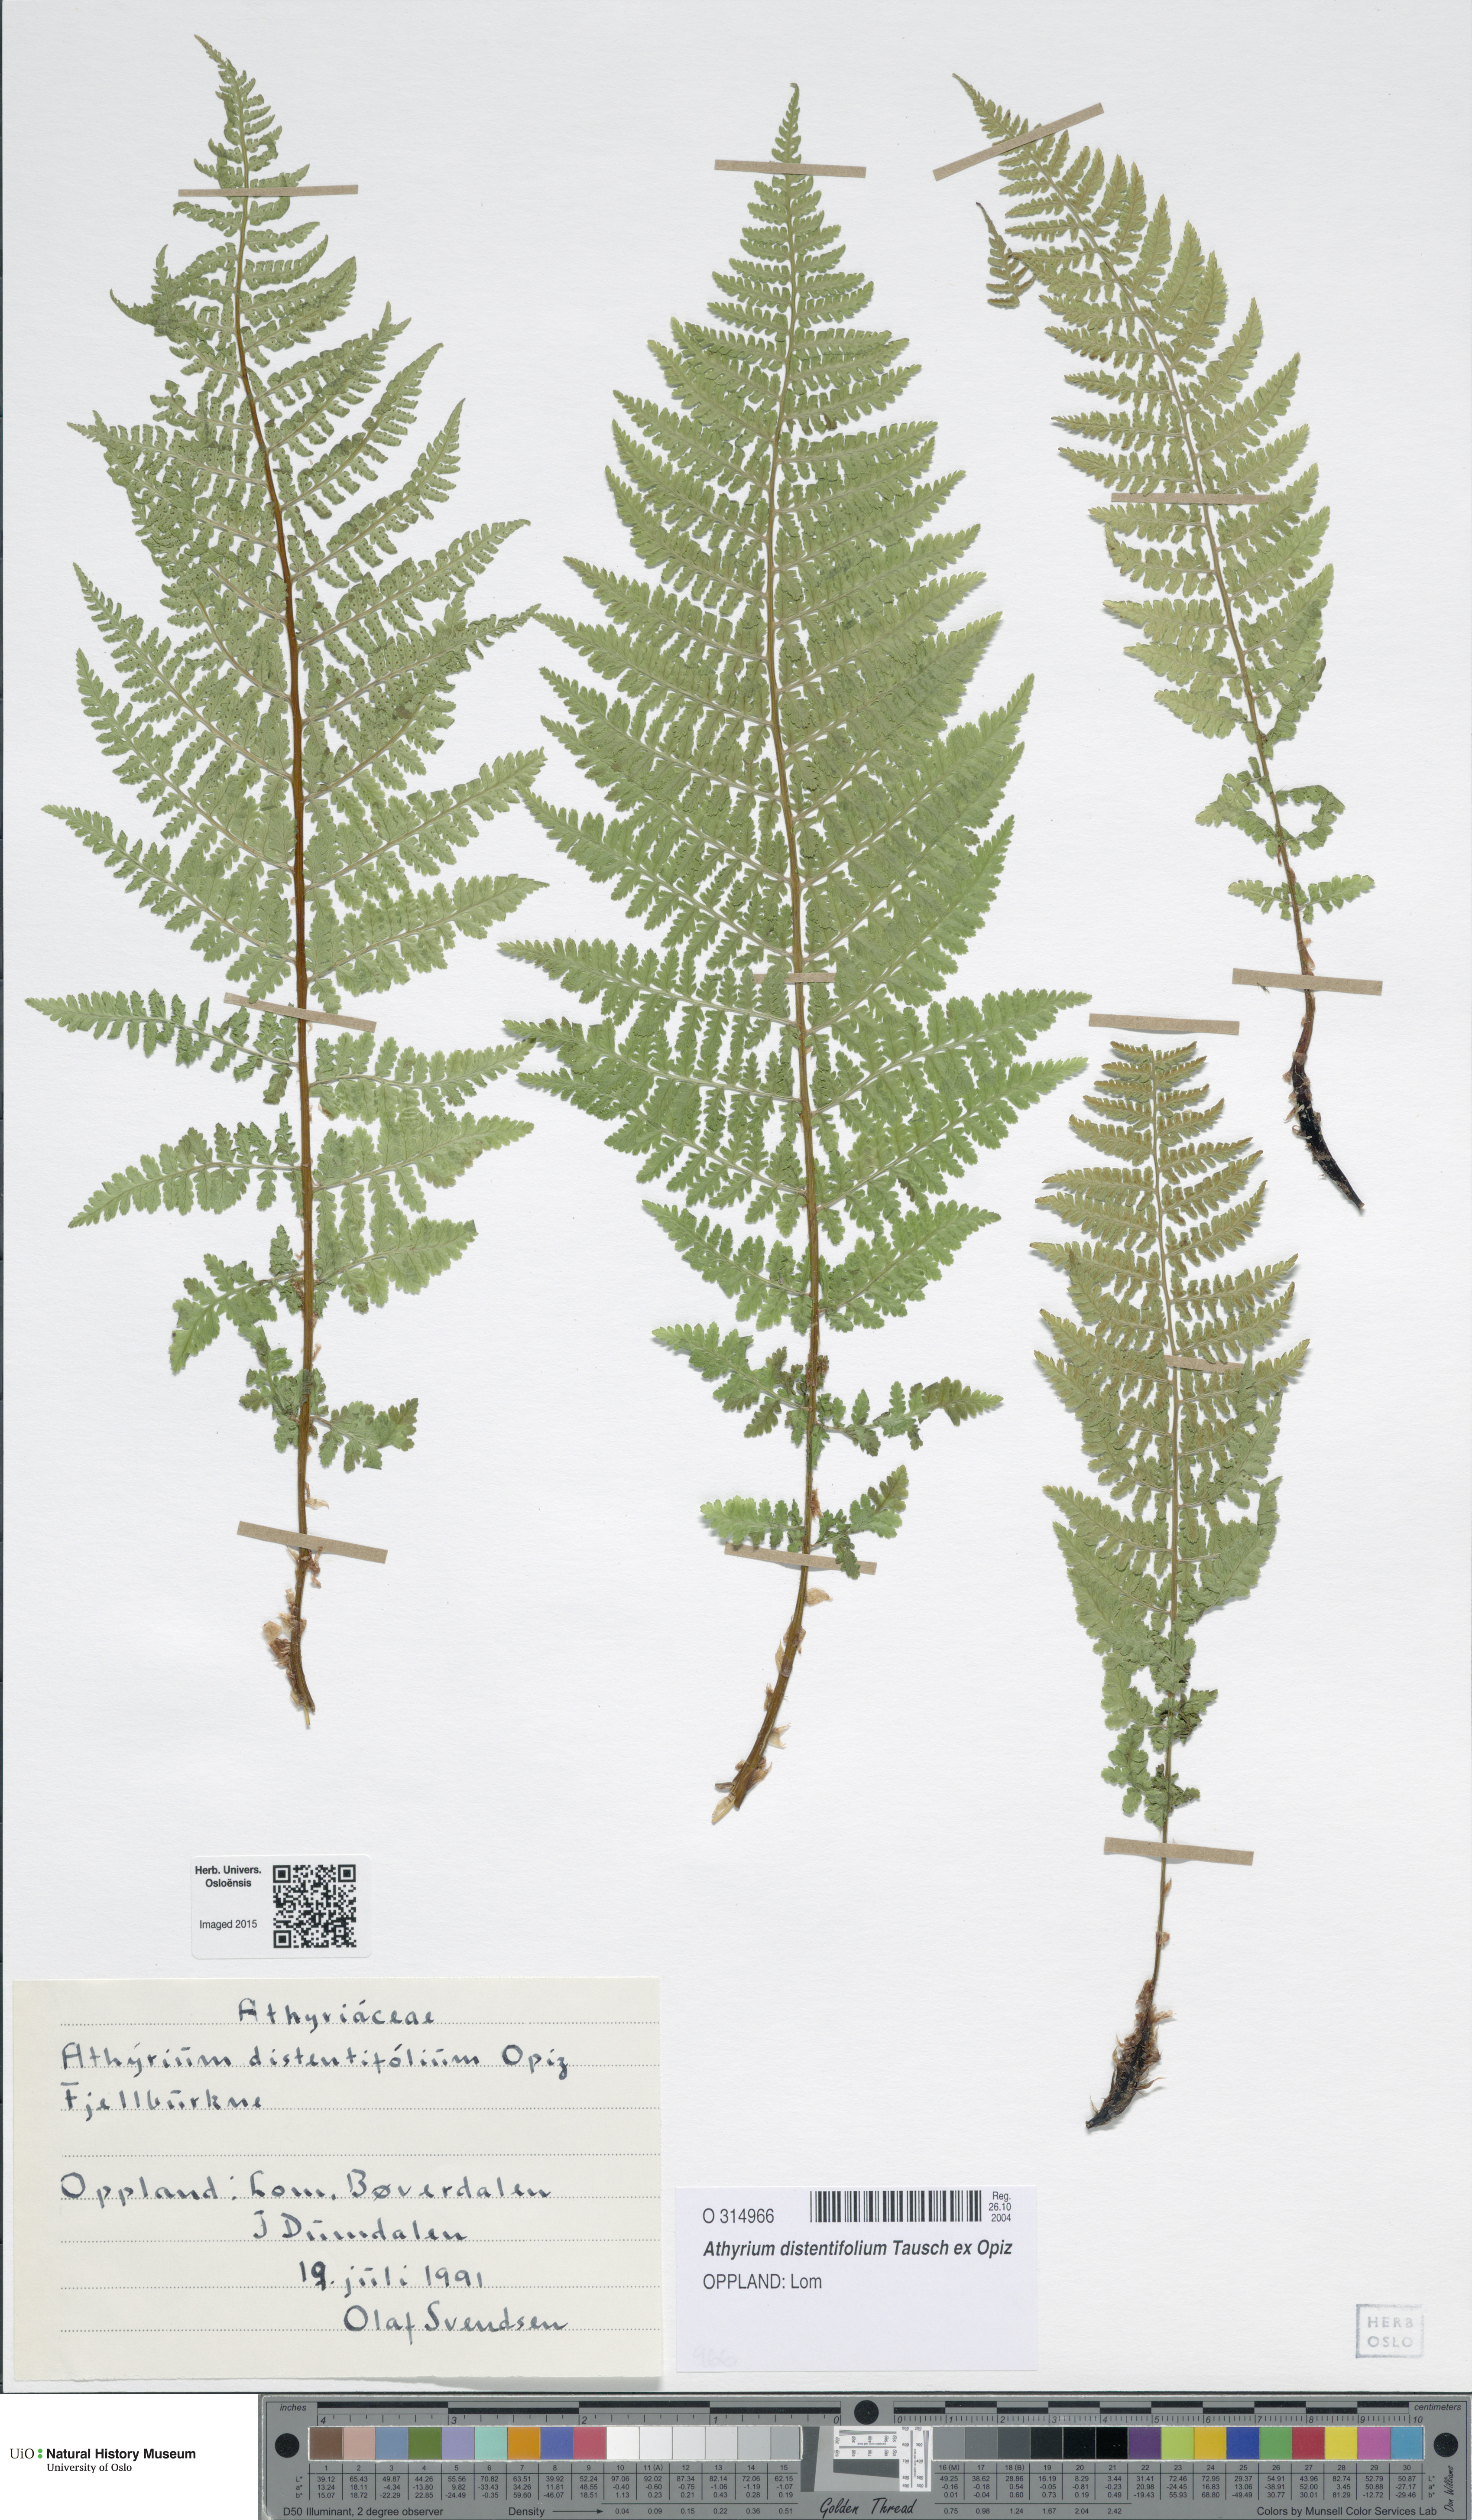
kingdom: Plantae
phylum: Tracheophyta
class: Polypodiopsida
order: Polypodiales
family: Athyriaceae
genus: Pseudathyrium
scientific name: Pseudathyrium alpestre
